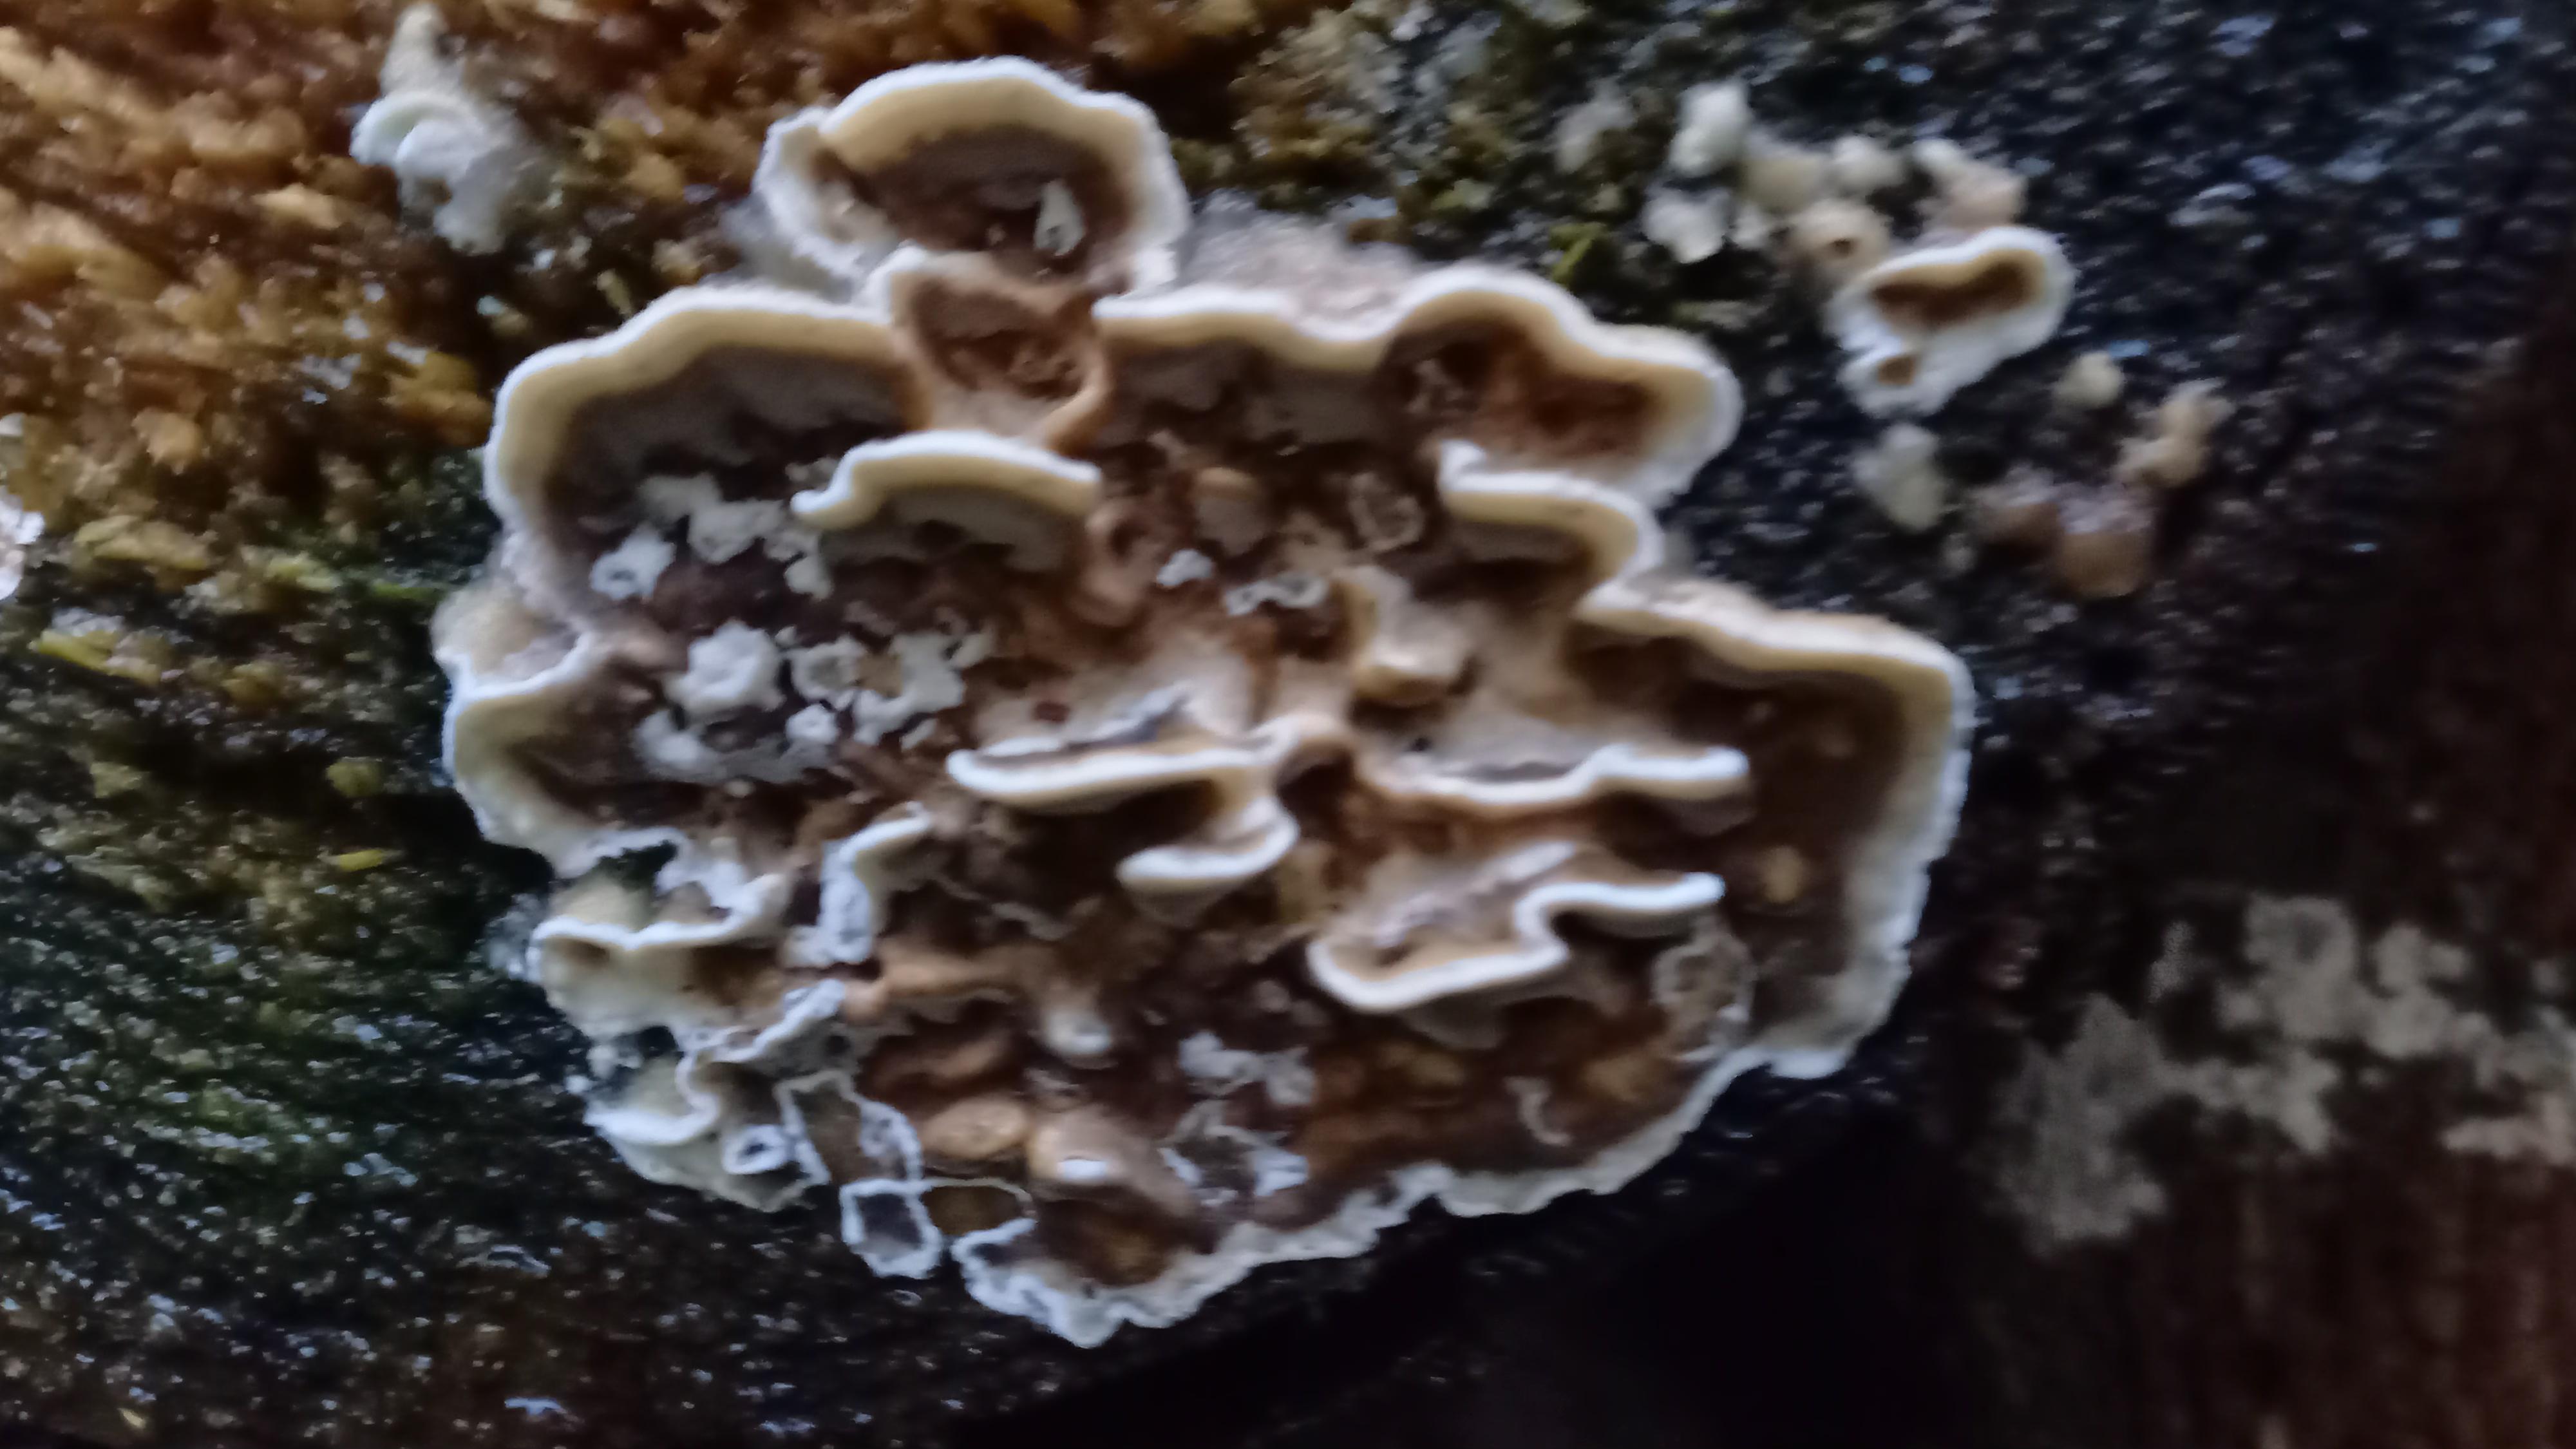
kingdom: Fungi
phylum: Basidiomycota
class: Agaricomycetes
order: Polyporales
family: Phanerochaetaceae
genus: Bjerkandera
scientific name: Bjerkandera adusta
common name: sveden sodporesvamp
